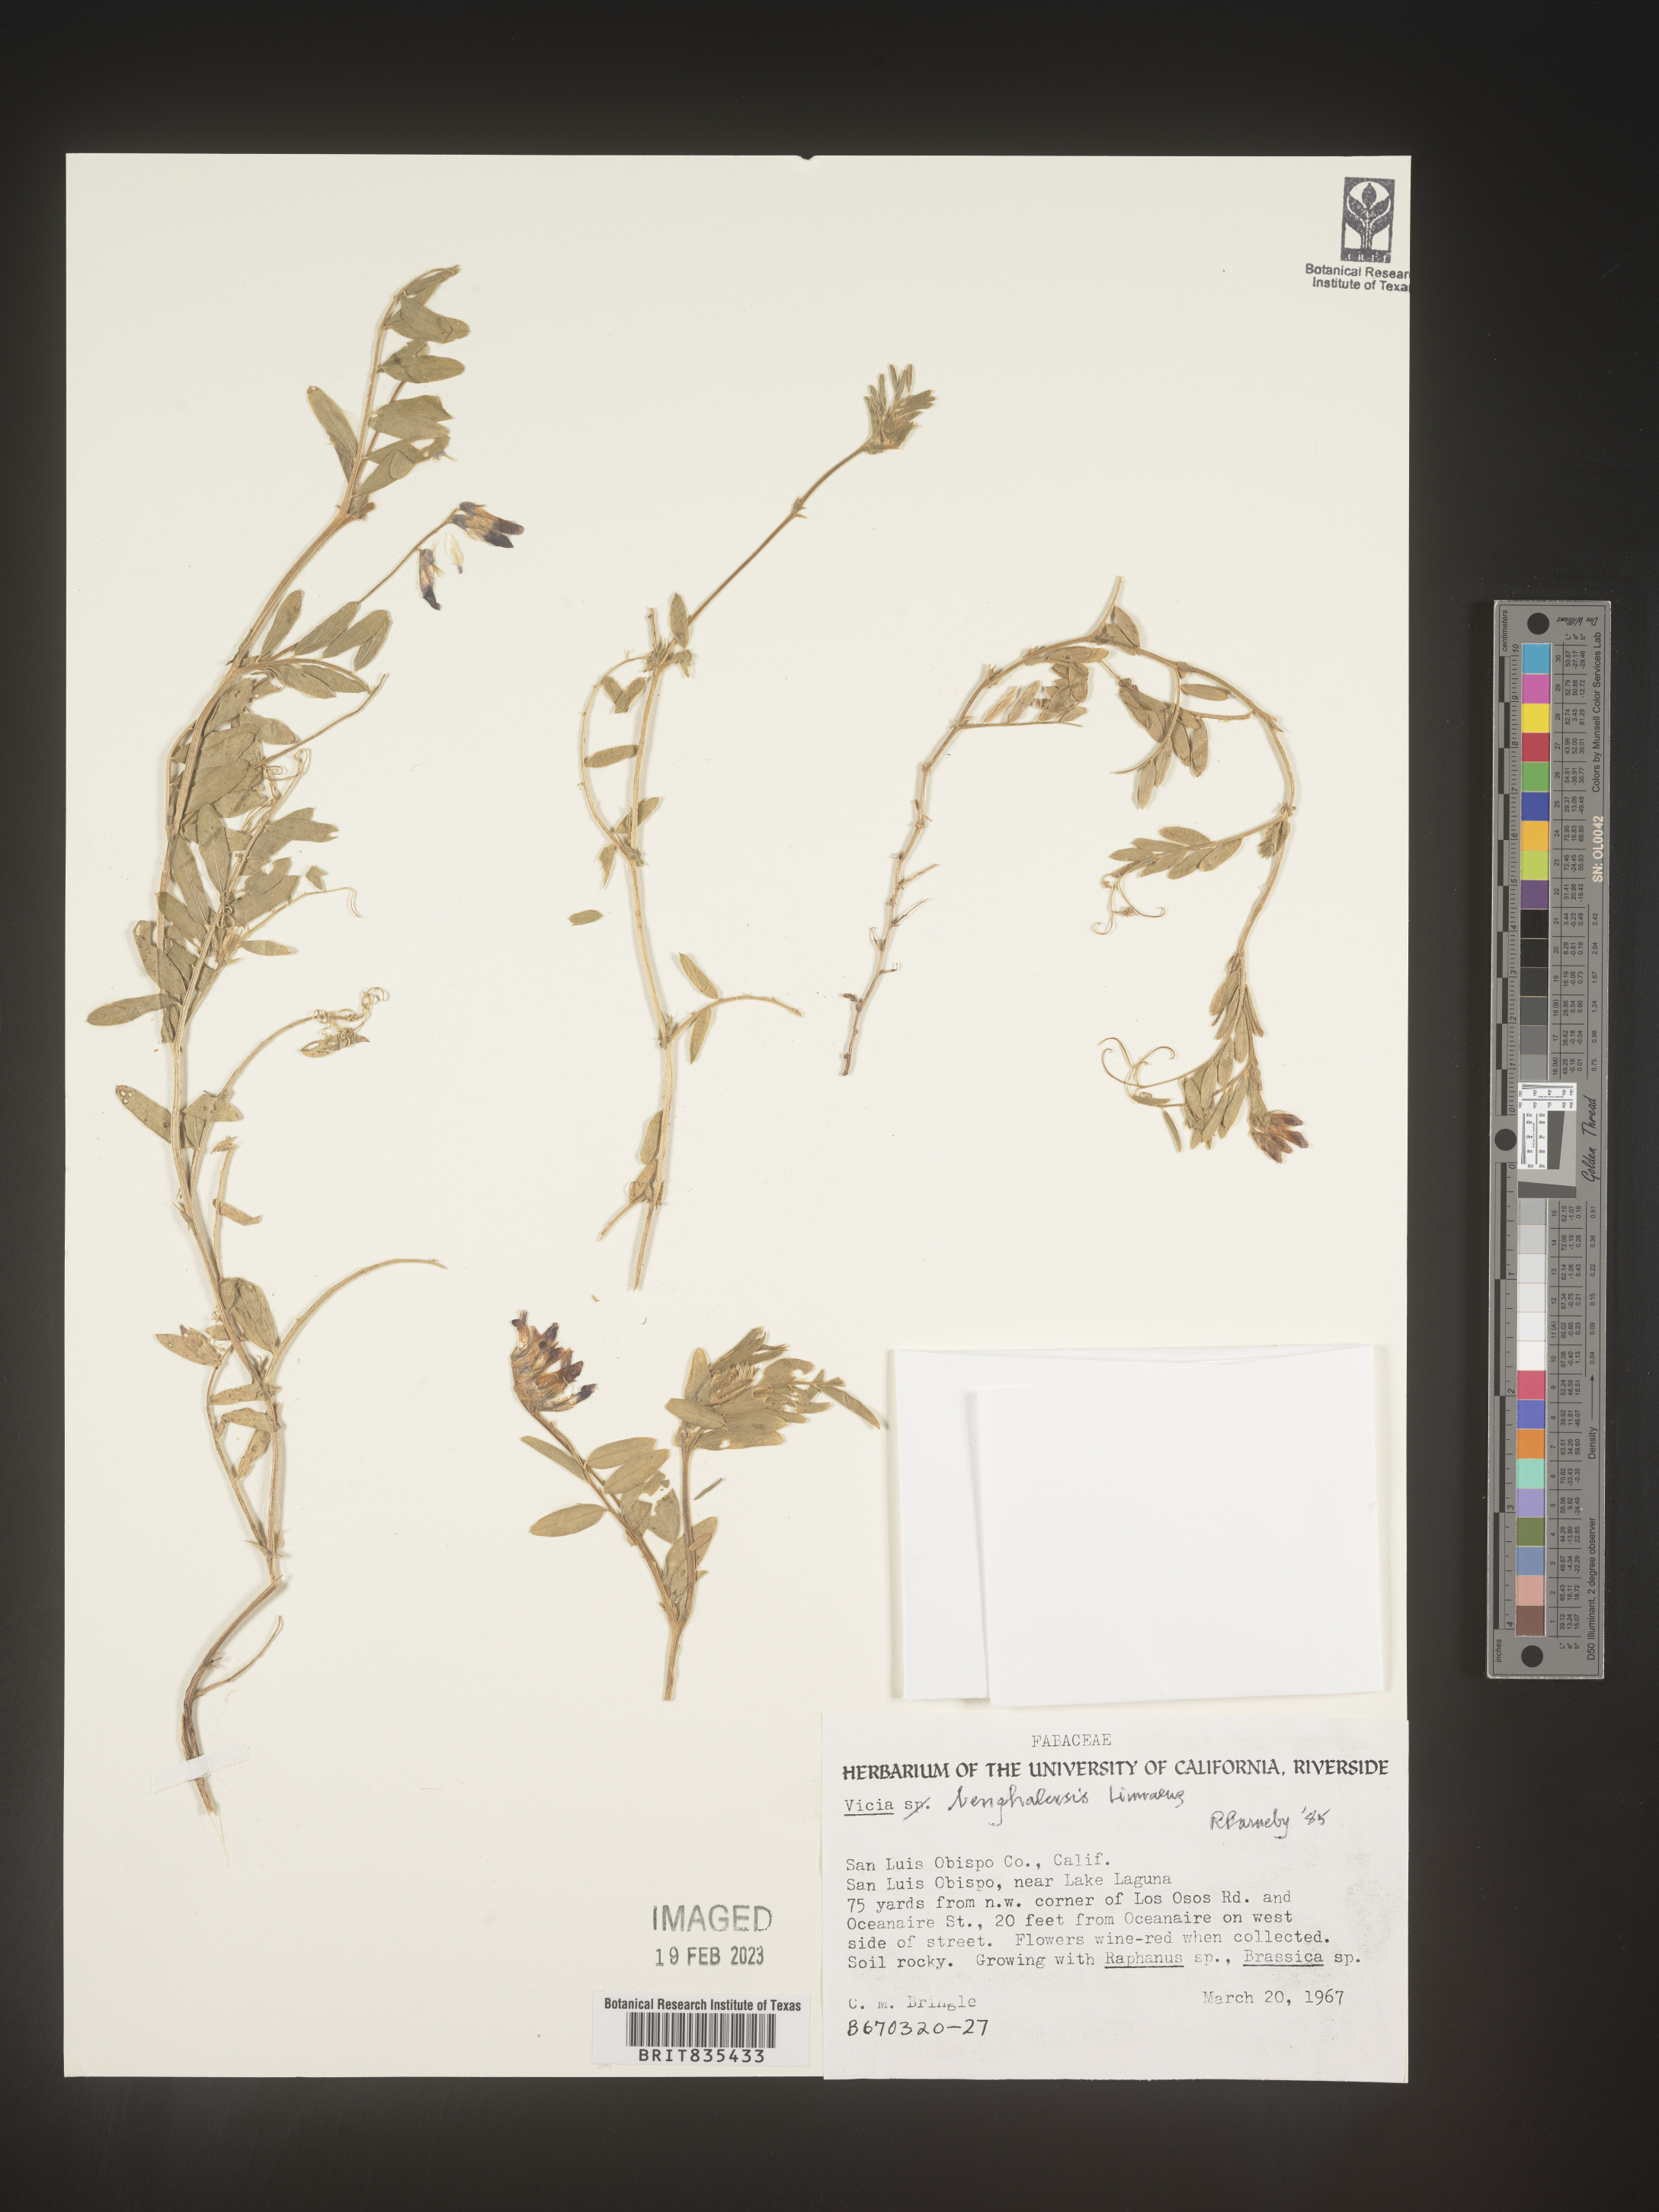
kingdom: Plantae
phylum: Tracheophyta
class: Magnoliopsida
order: Fabales
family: Fabaceae
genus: Vicia
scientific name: Vicia
